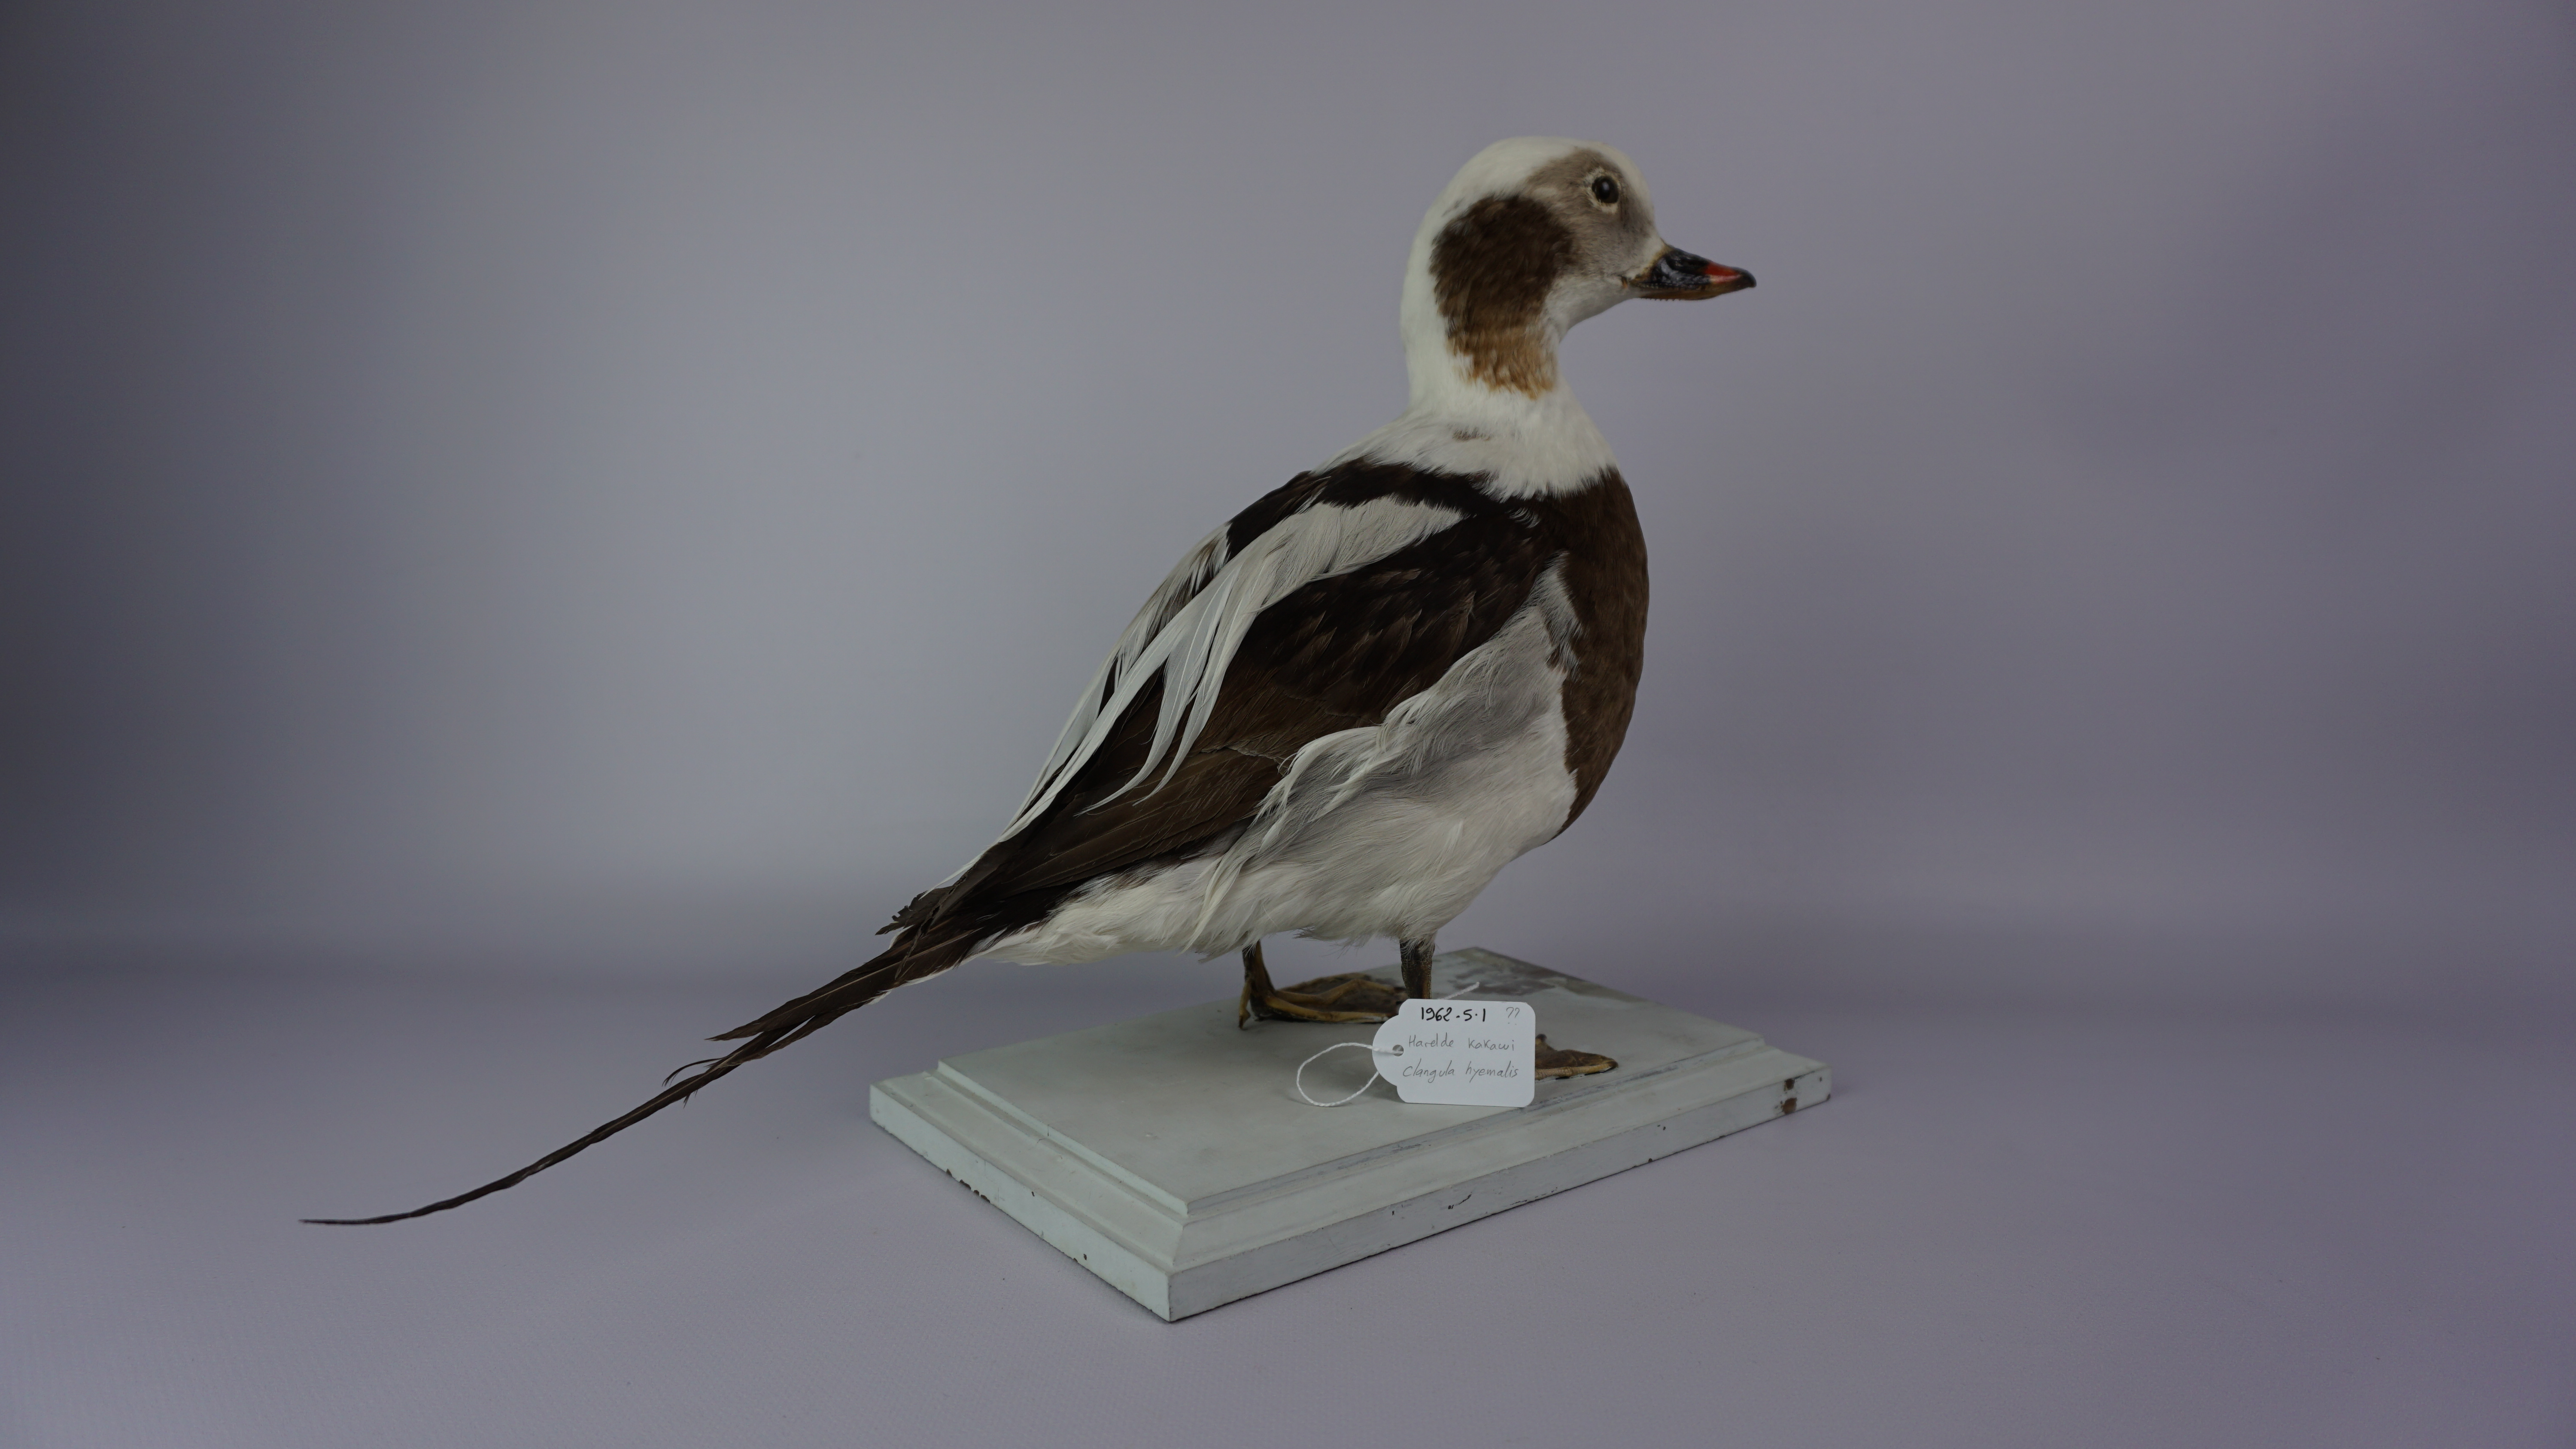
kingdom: Animalia
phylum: Chordata
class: Aves
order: Anseriformes
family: Anatidae
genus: Clangula
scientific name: Clangula hyemalis
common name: Long-tailed duck
